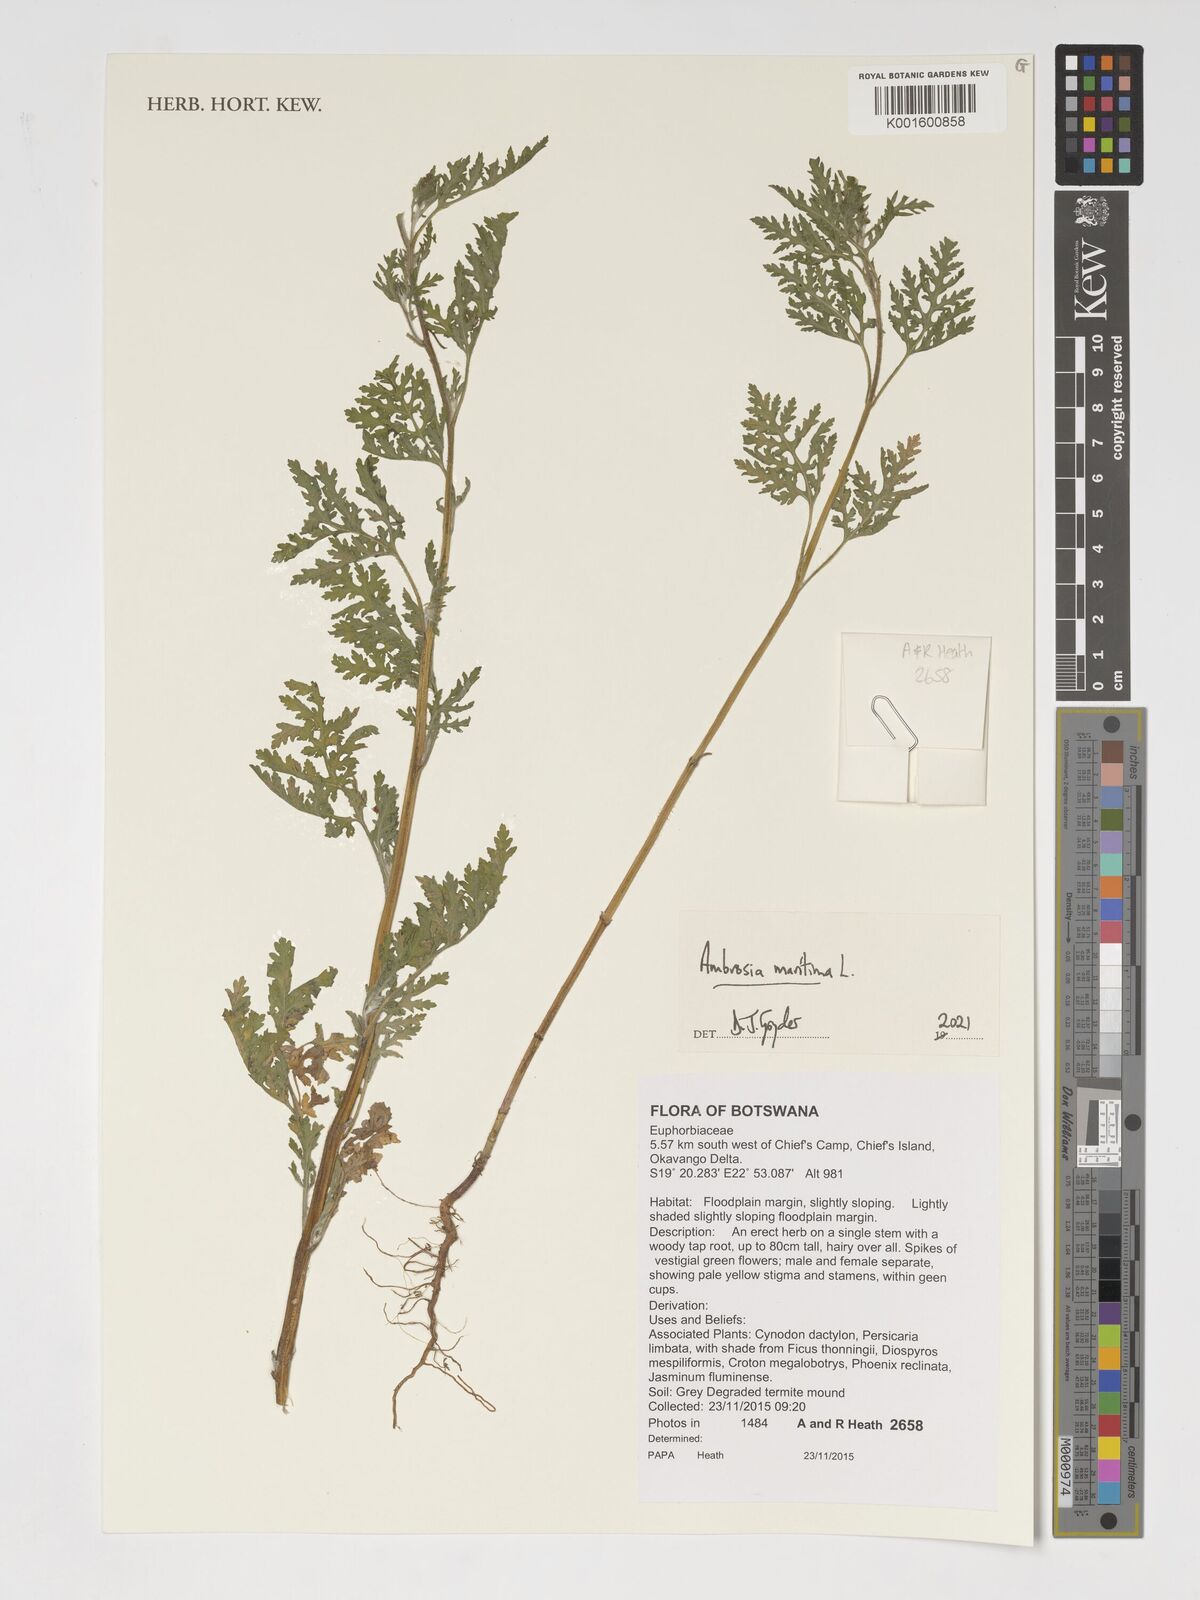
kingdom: Plantae
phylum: Tracheophyta
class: Magnoliopsida
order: Asterales
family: Asteraceae
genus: Ambrosia
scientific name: Ambrosia maritima
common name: Sea ambrosia
